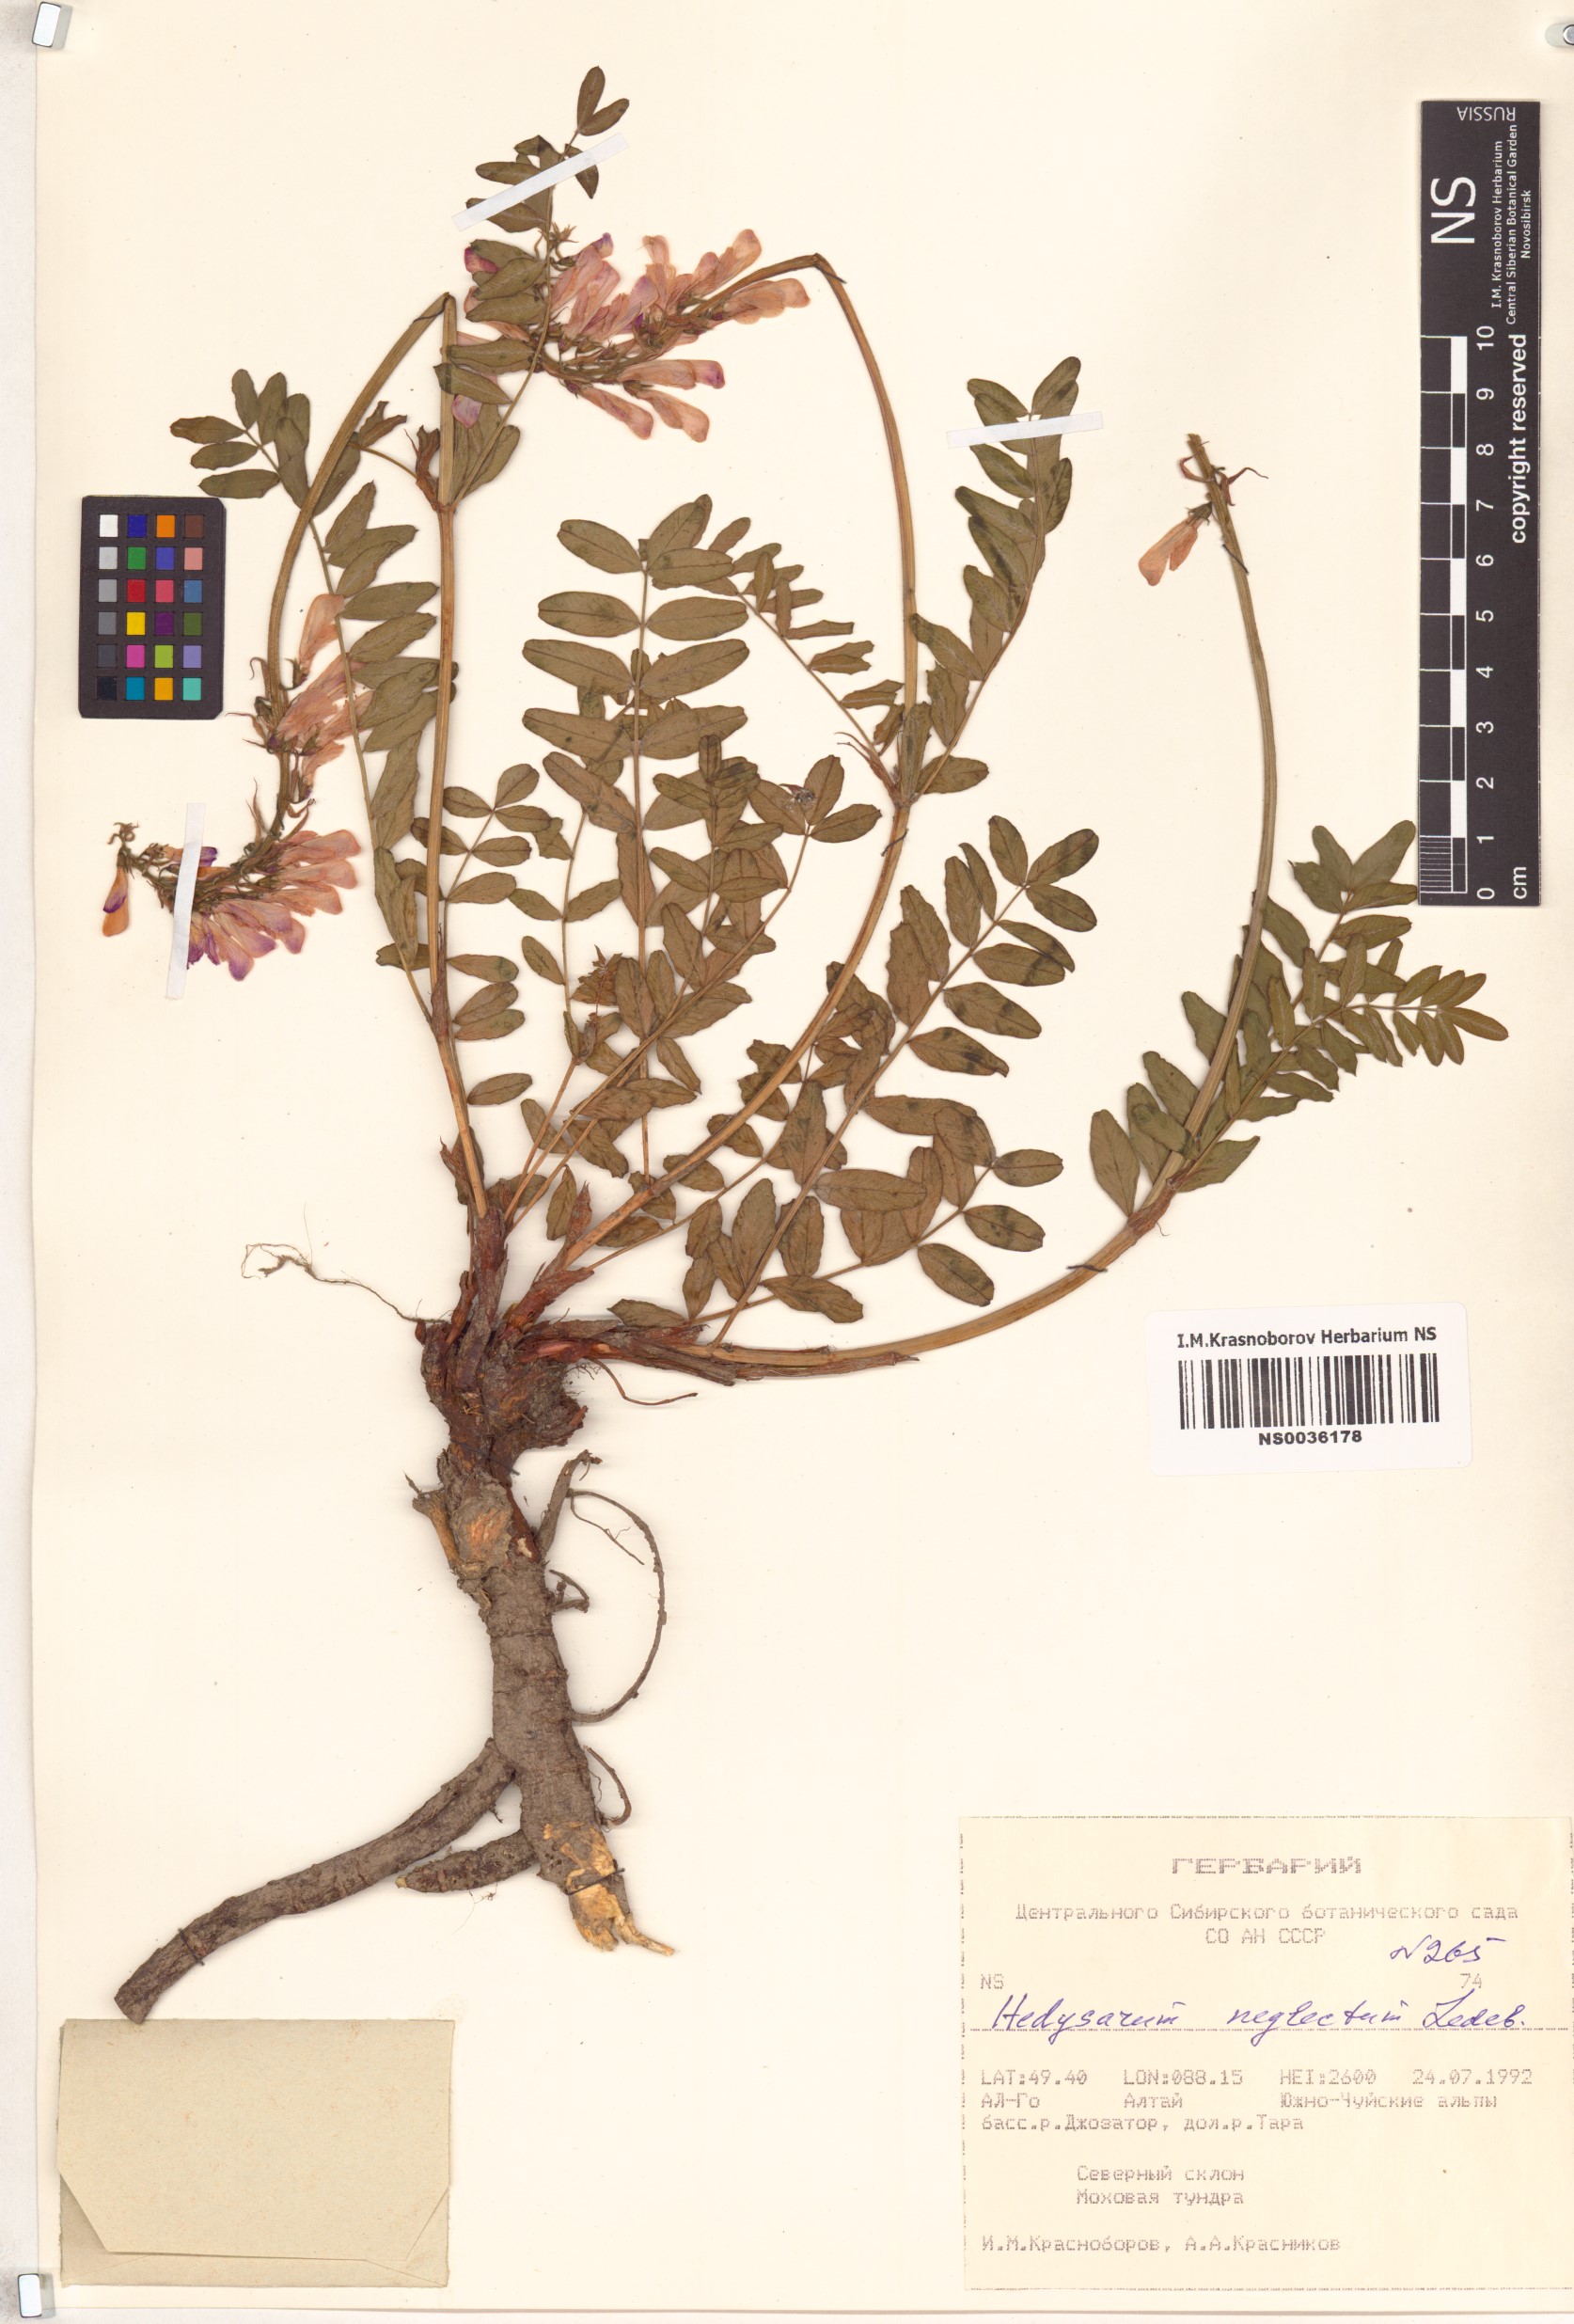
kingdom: Plantae
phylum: Tracheophyta
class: Magnoliopsida
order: Fabales
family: Fabaceae
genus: Hedysarum
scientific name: Hedysarum neglectum
